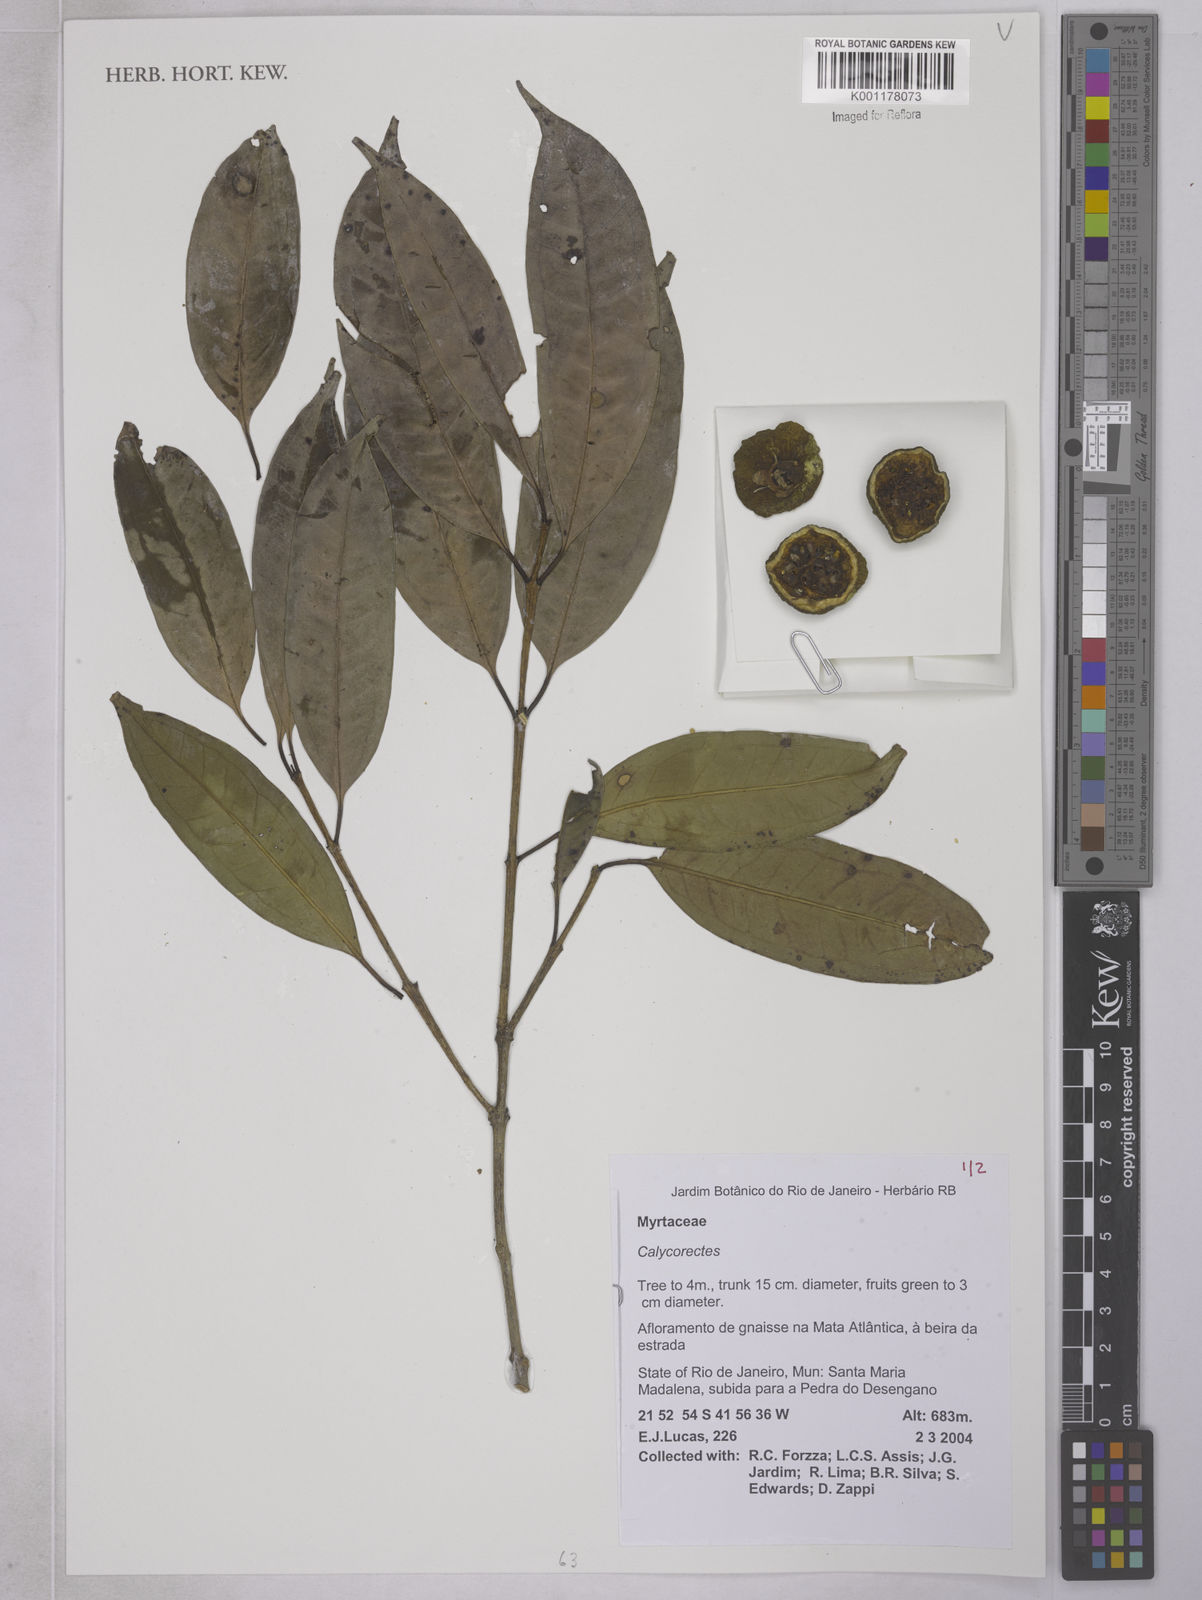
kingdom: Plantae
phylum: Tracheophyta
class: Magnoliopsida
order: Myrtales
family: Myrtaceae
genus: Eugenia
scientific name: Eugenia brevistyla
